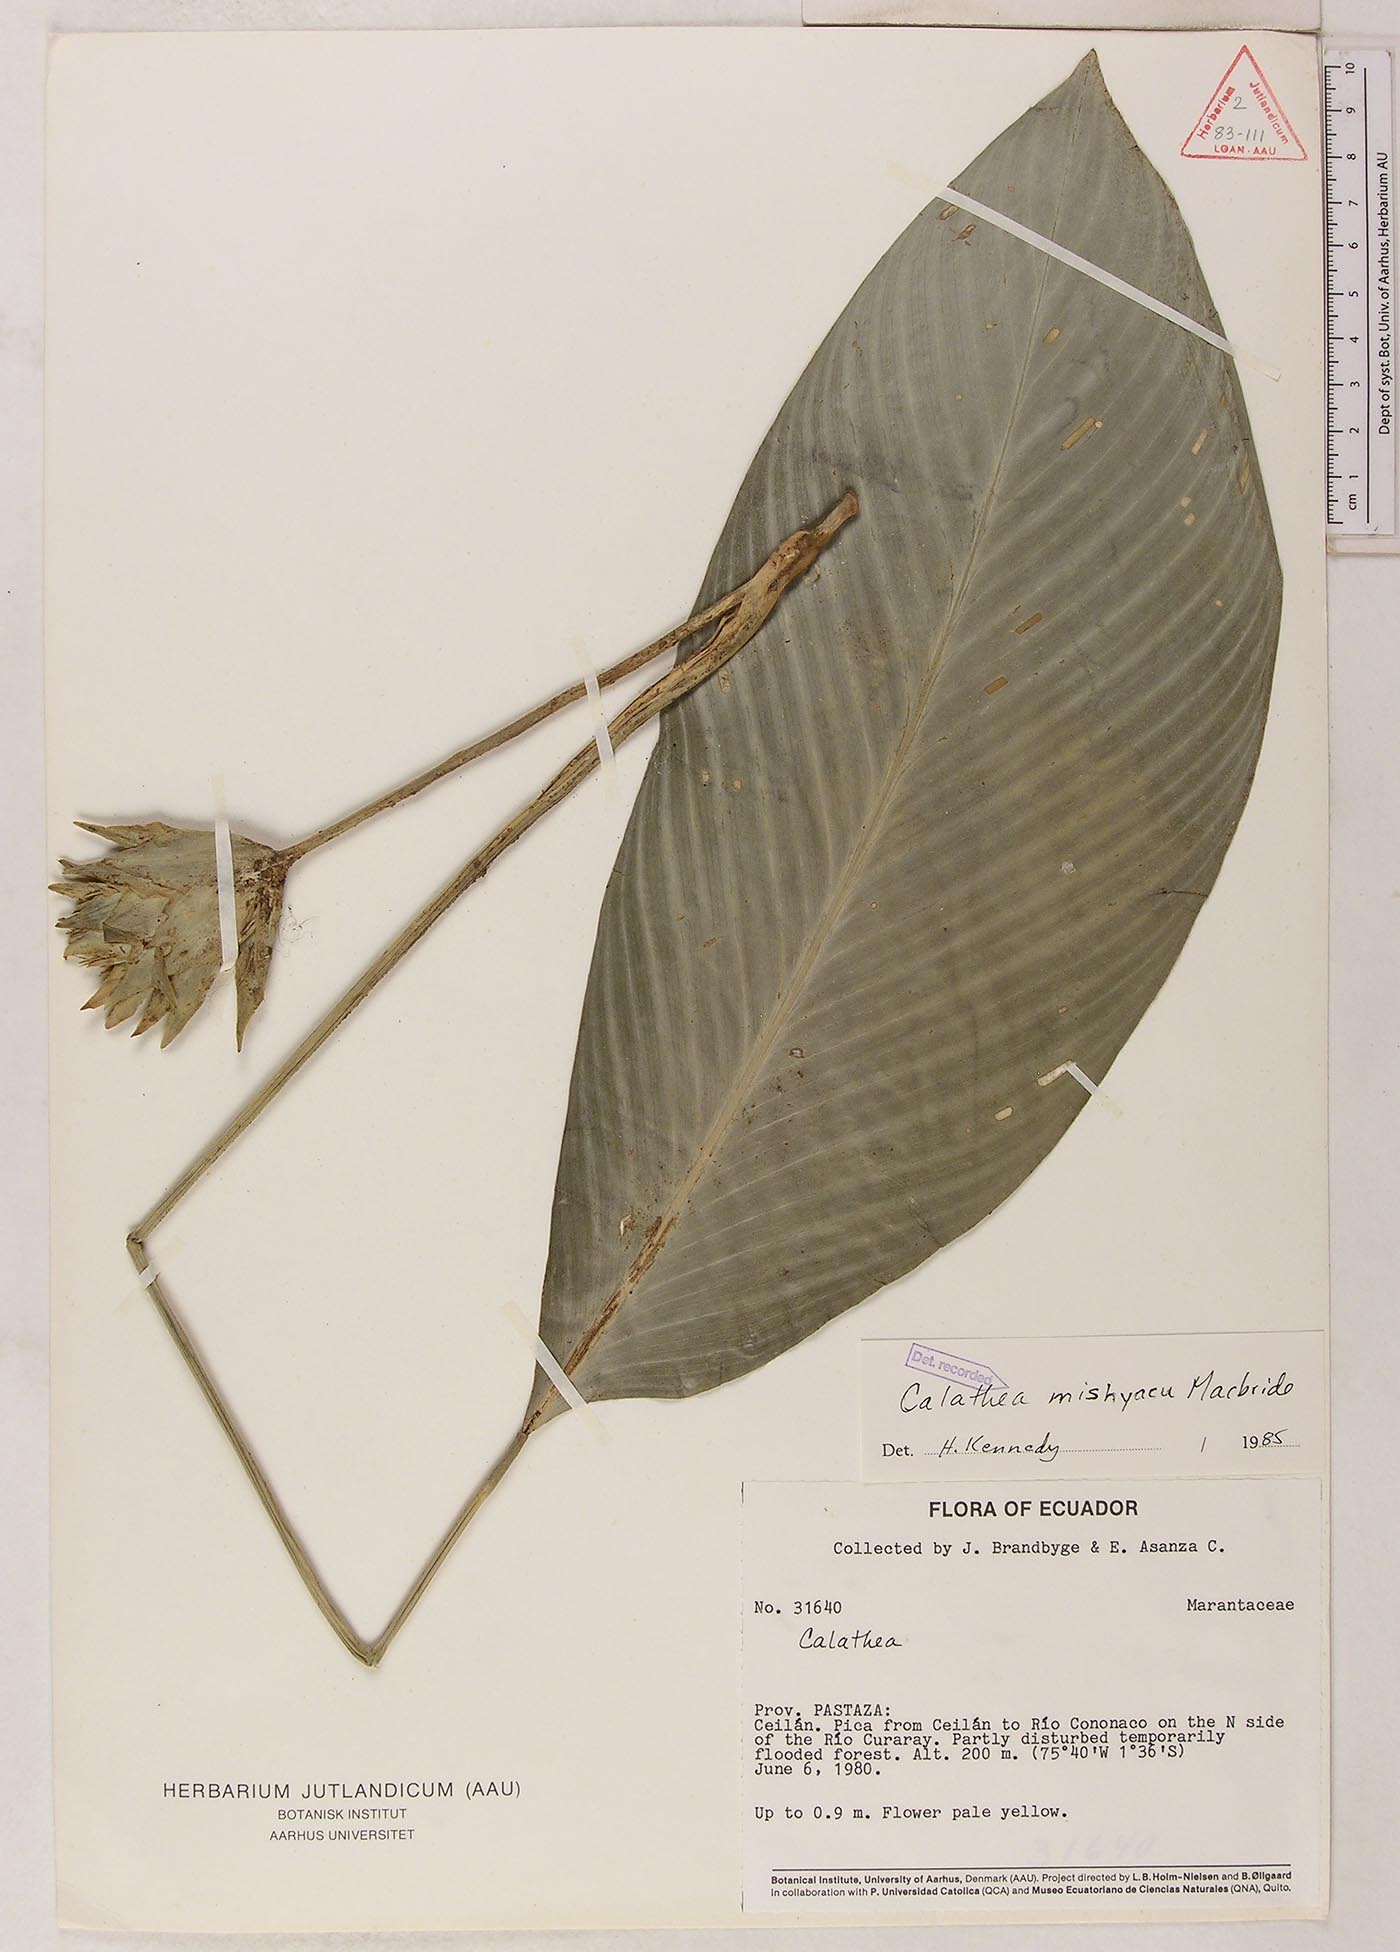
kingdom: Plantae
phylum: Tracheophyta
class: Liliopsida
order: Zingiberales
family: Marantaceae
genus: Goeppertia
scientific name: Goeppertia mishuyacu
